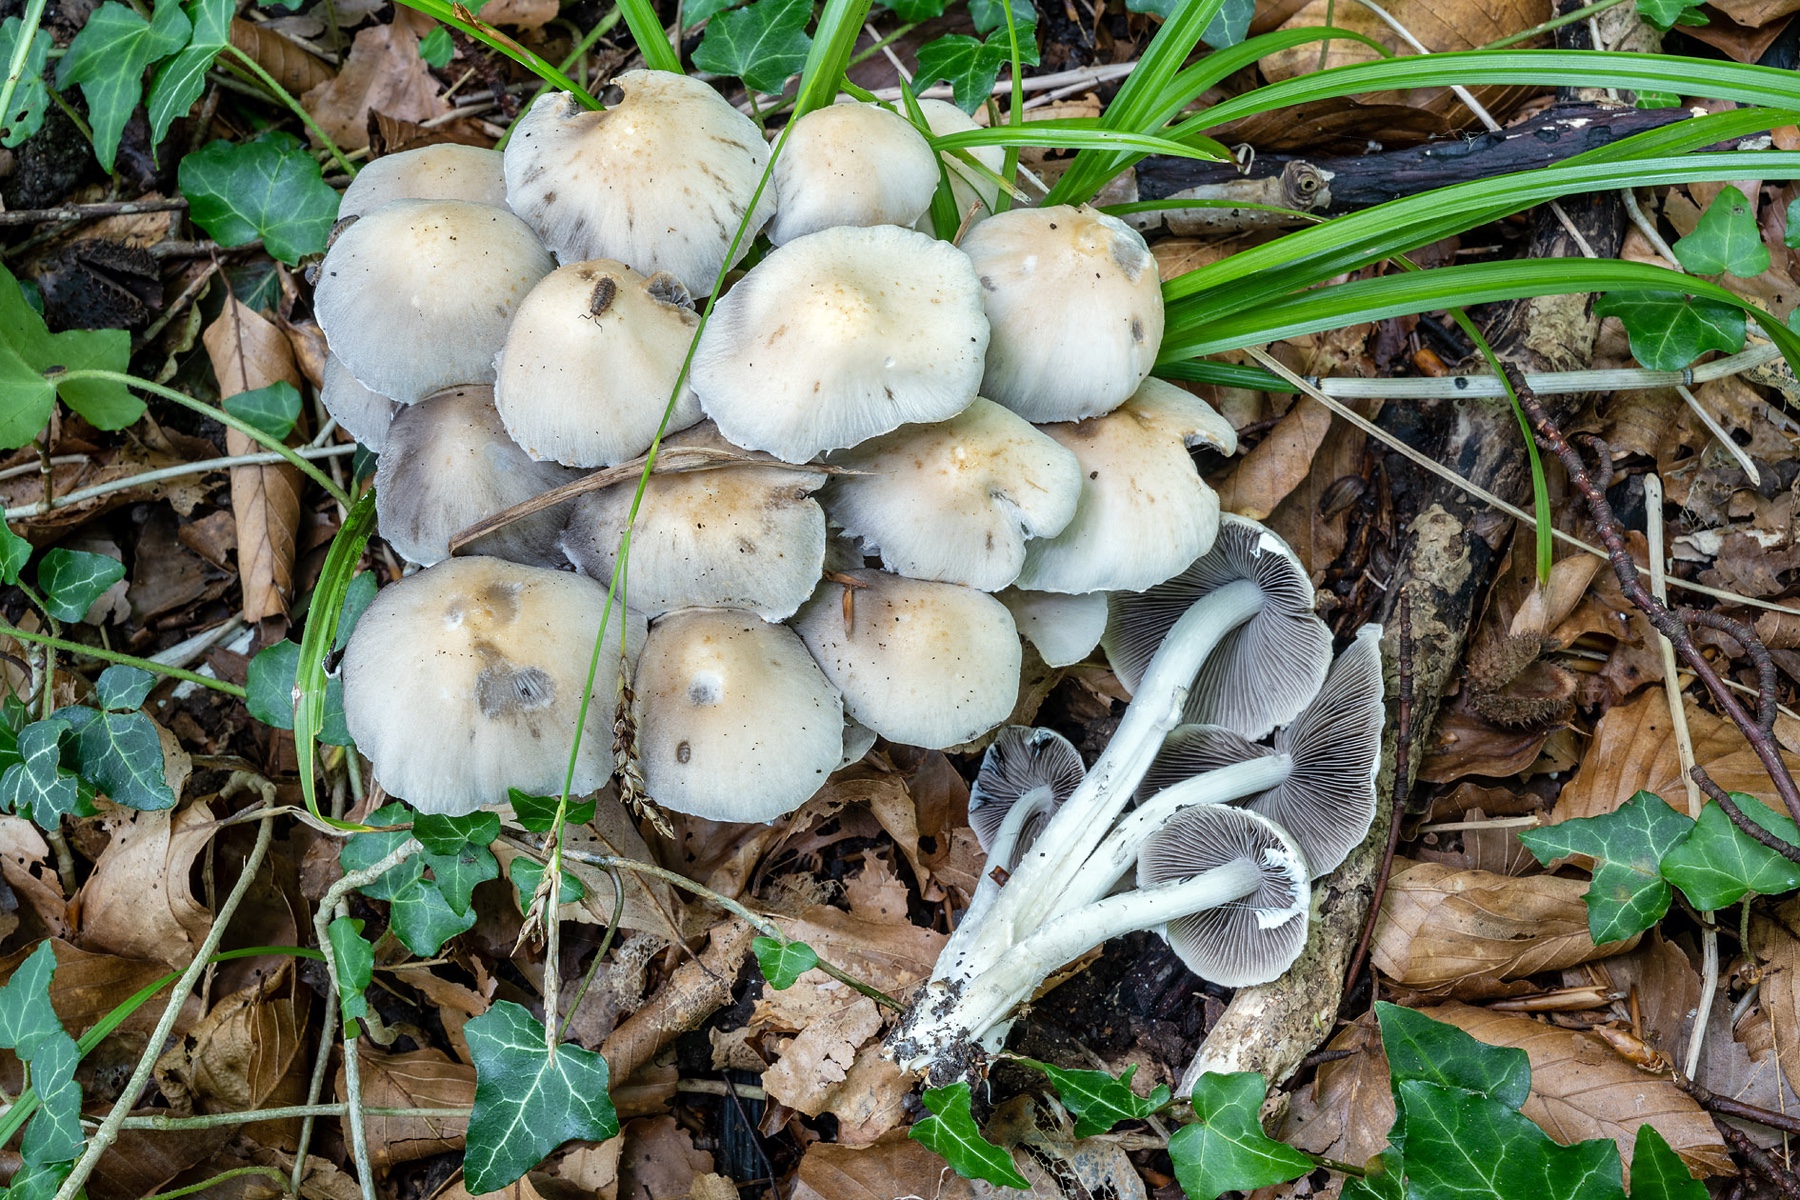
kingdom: Fungi
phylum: Basidiomycota
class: Agaricomycetes
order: Agaricales
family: Psathyrellaceae
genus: Candolleomyces
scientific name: Candolleomyces leucotephrus
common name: askehvid mørkhat
